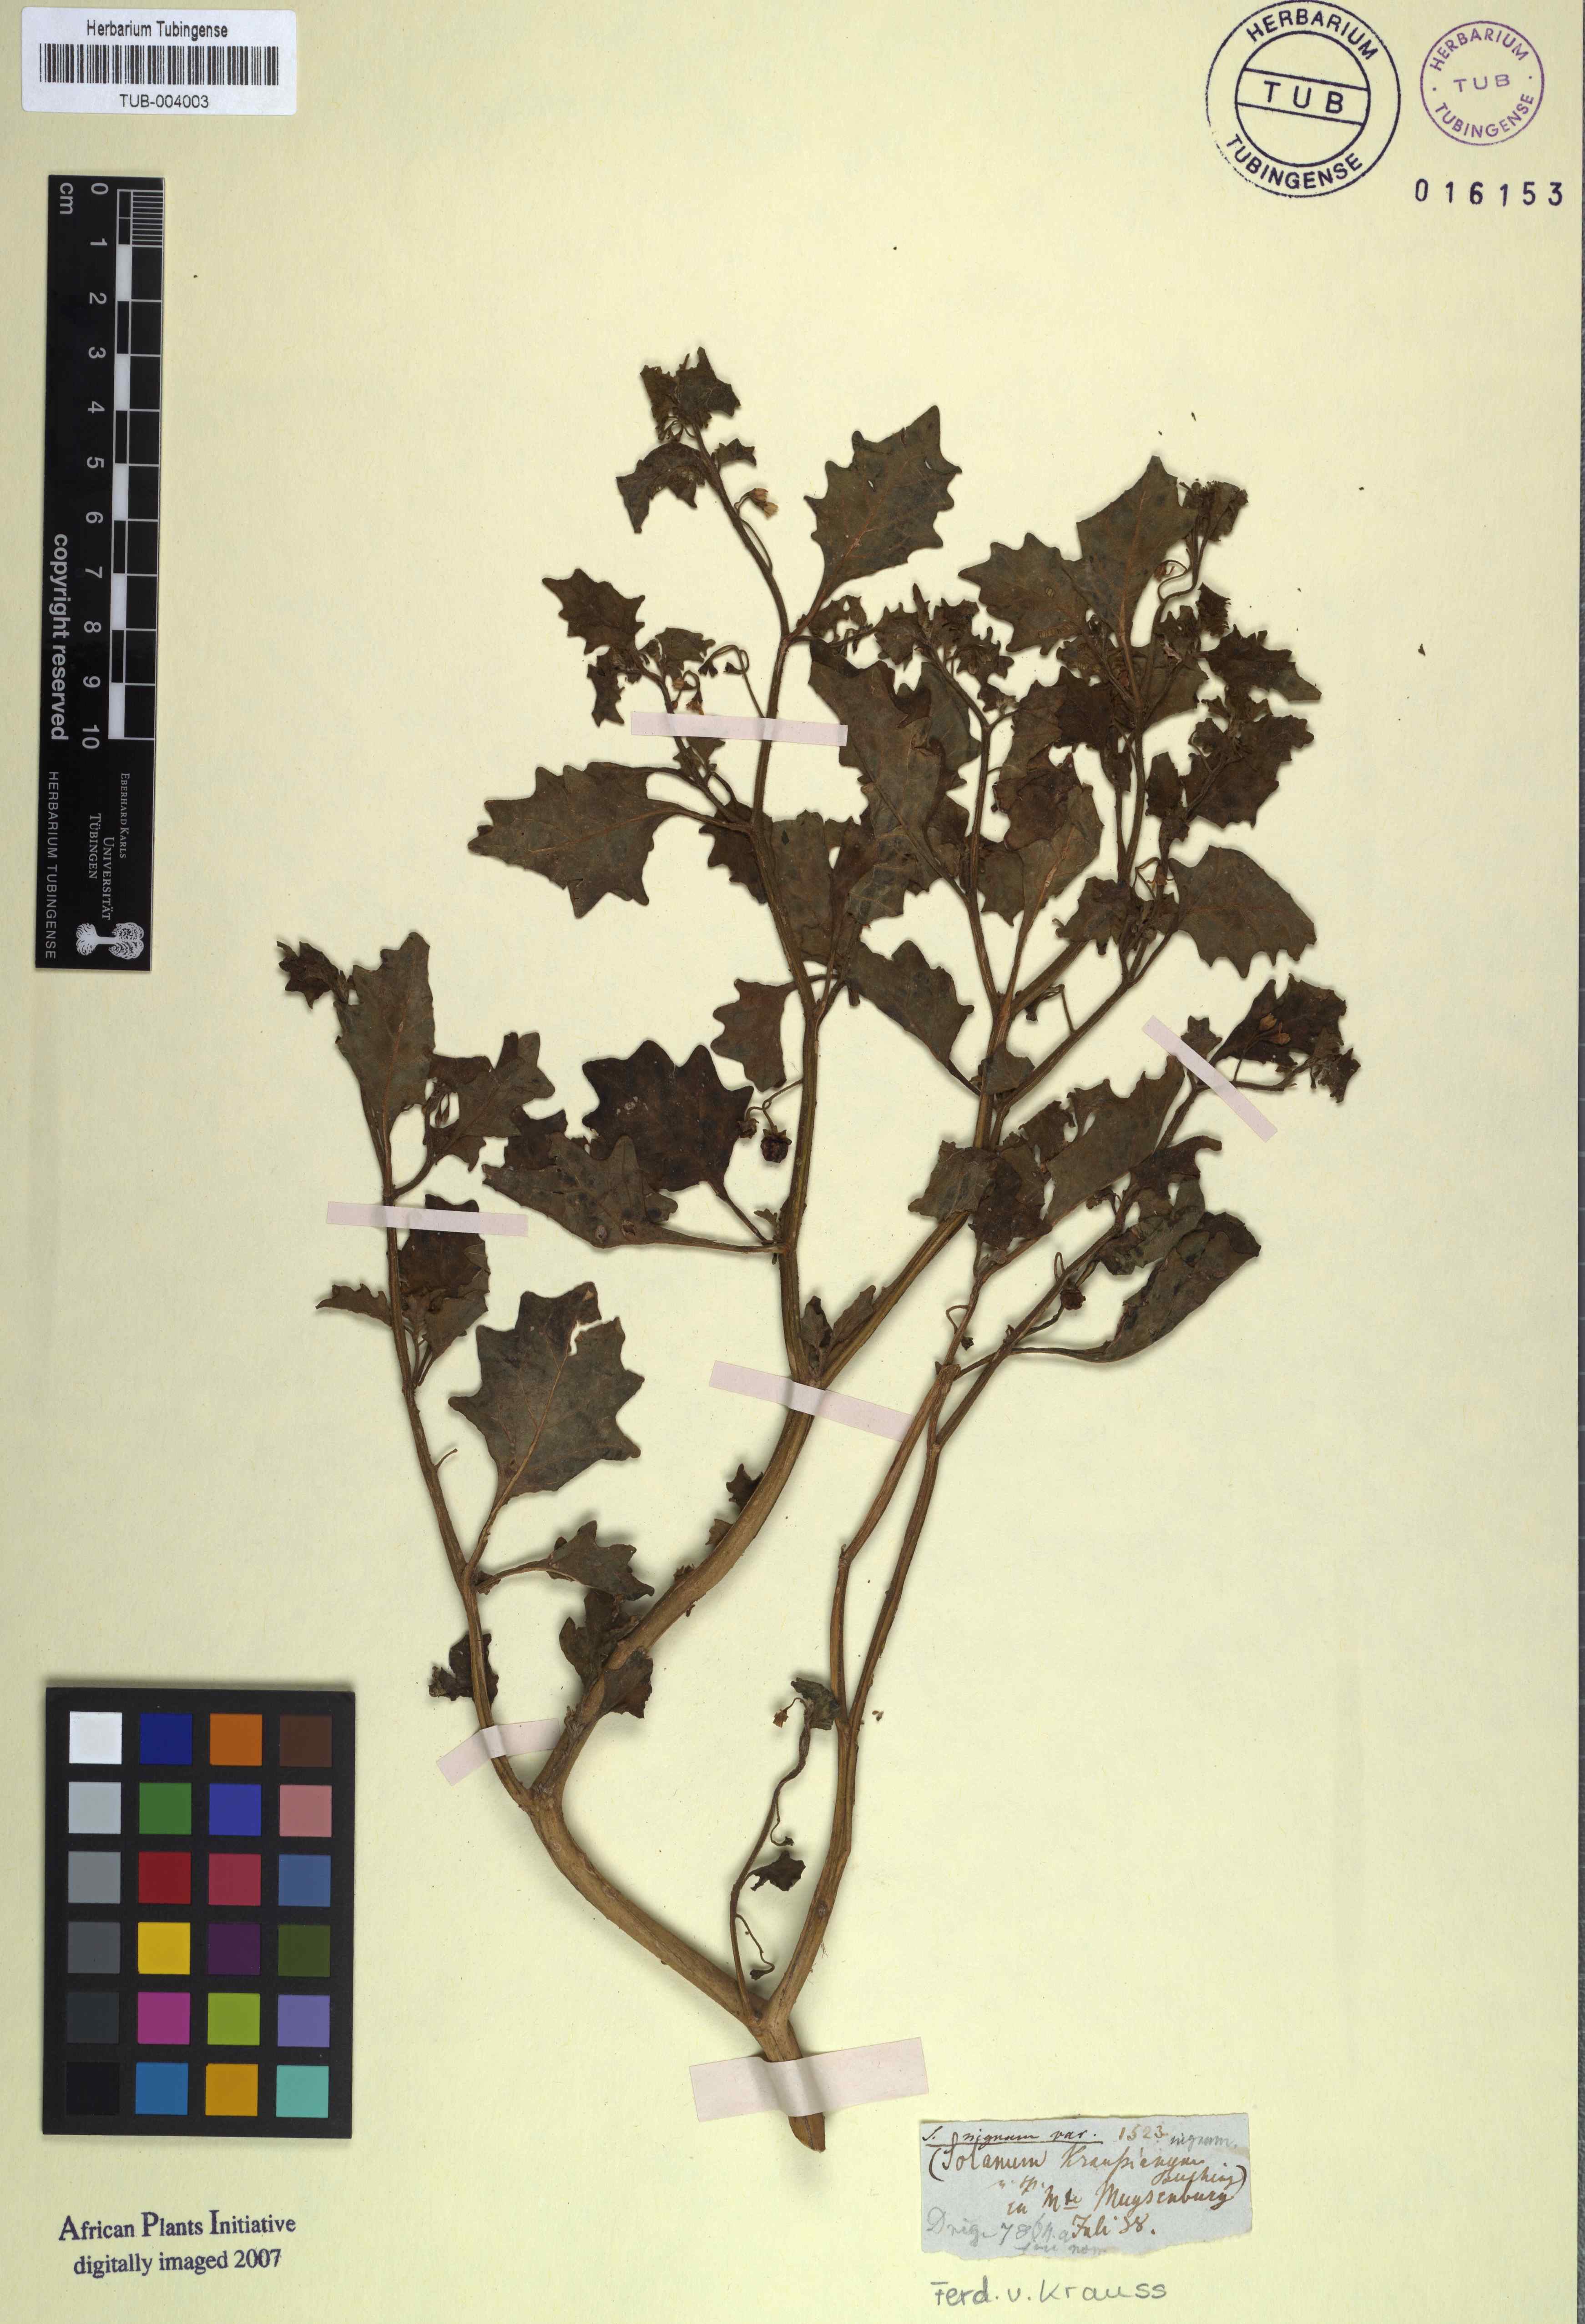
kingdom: Plantae
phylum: Tracheophyta
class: Magnoliopsida
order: Solanales
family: Solanaceae
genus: Solanum
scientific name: Solanum nigrum
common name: Black nightshade
